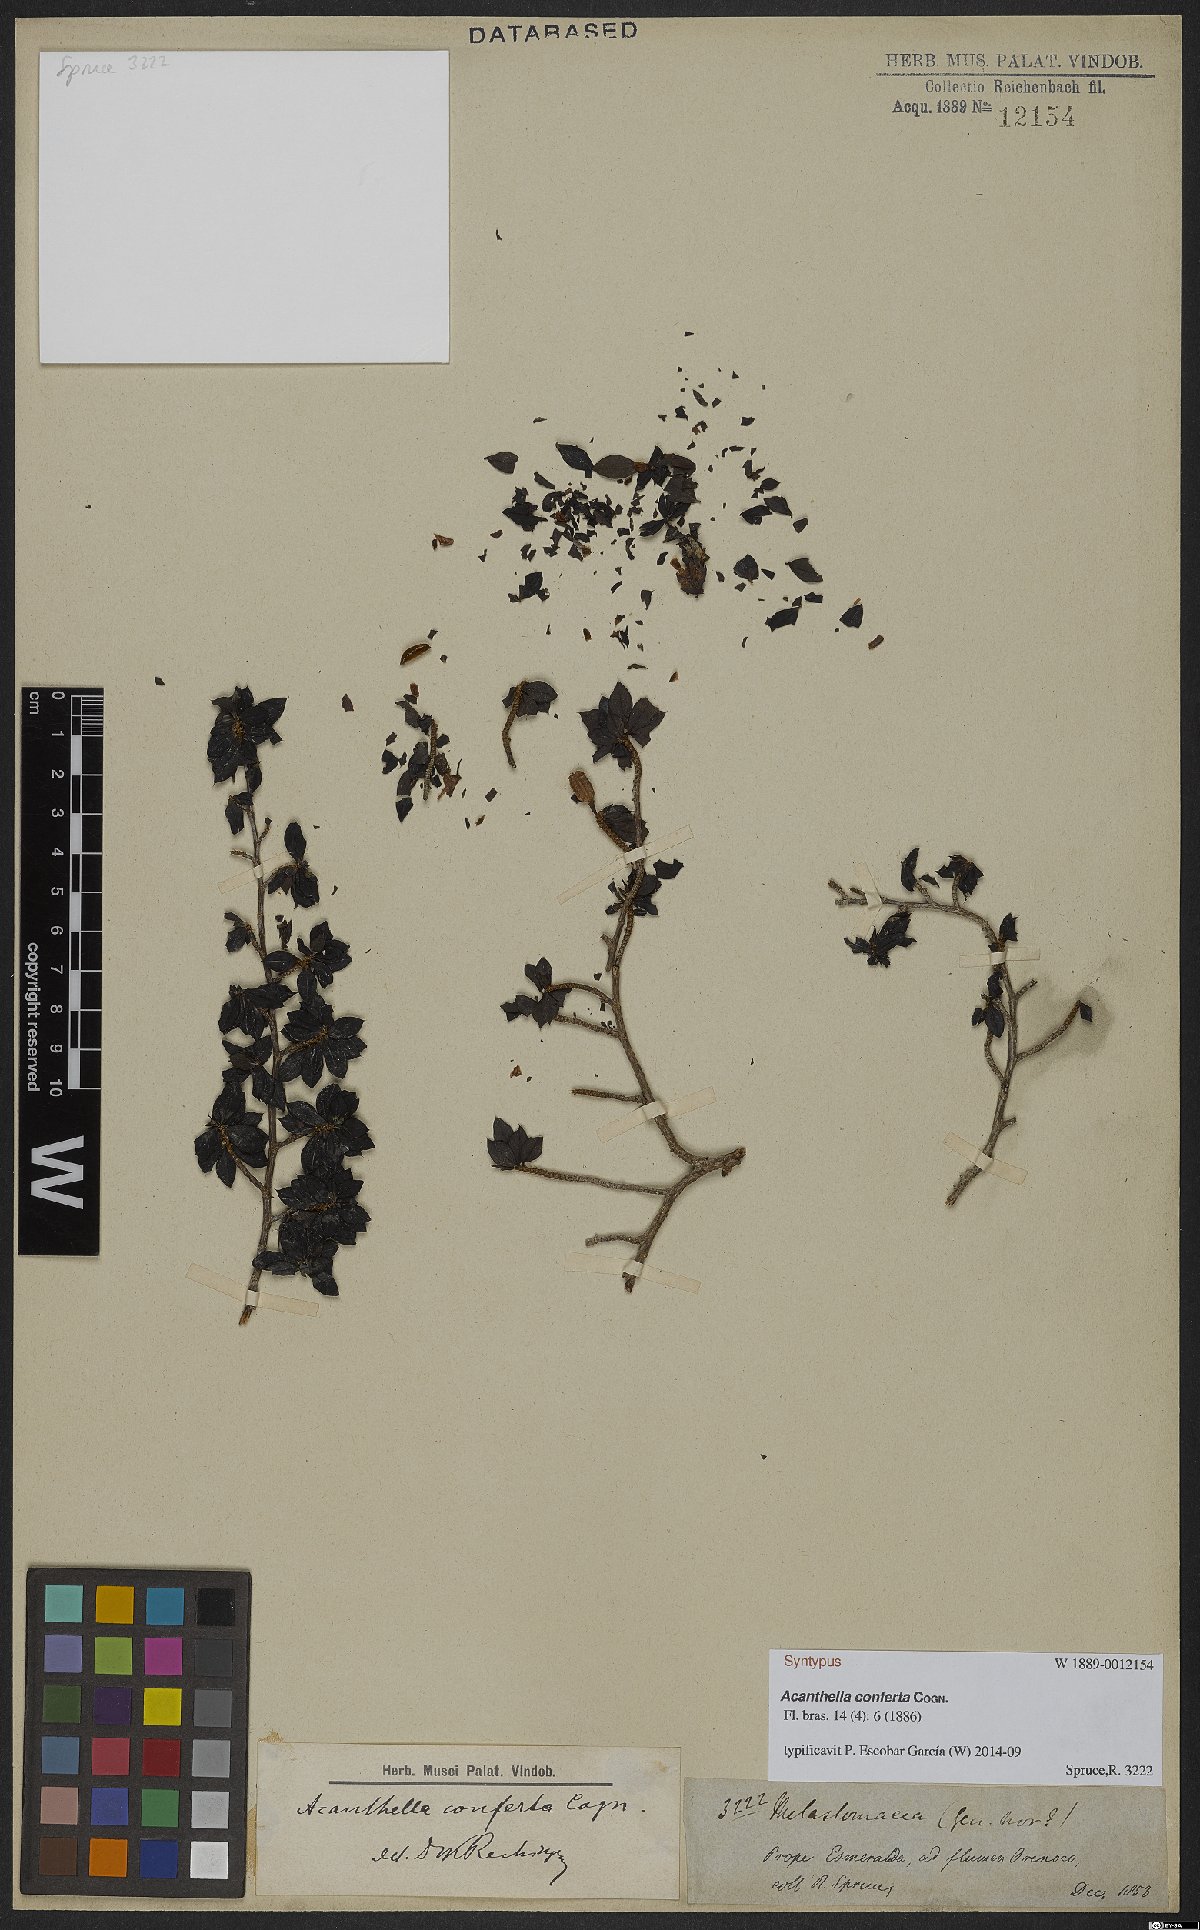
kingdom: Plantae
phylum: Tracheophyta
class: Magnoliopsida
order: Myrtales
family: Melastomataceae
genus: Acanthella
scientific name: Acanthella conferta
